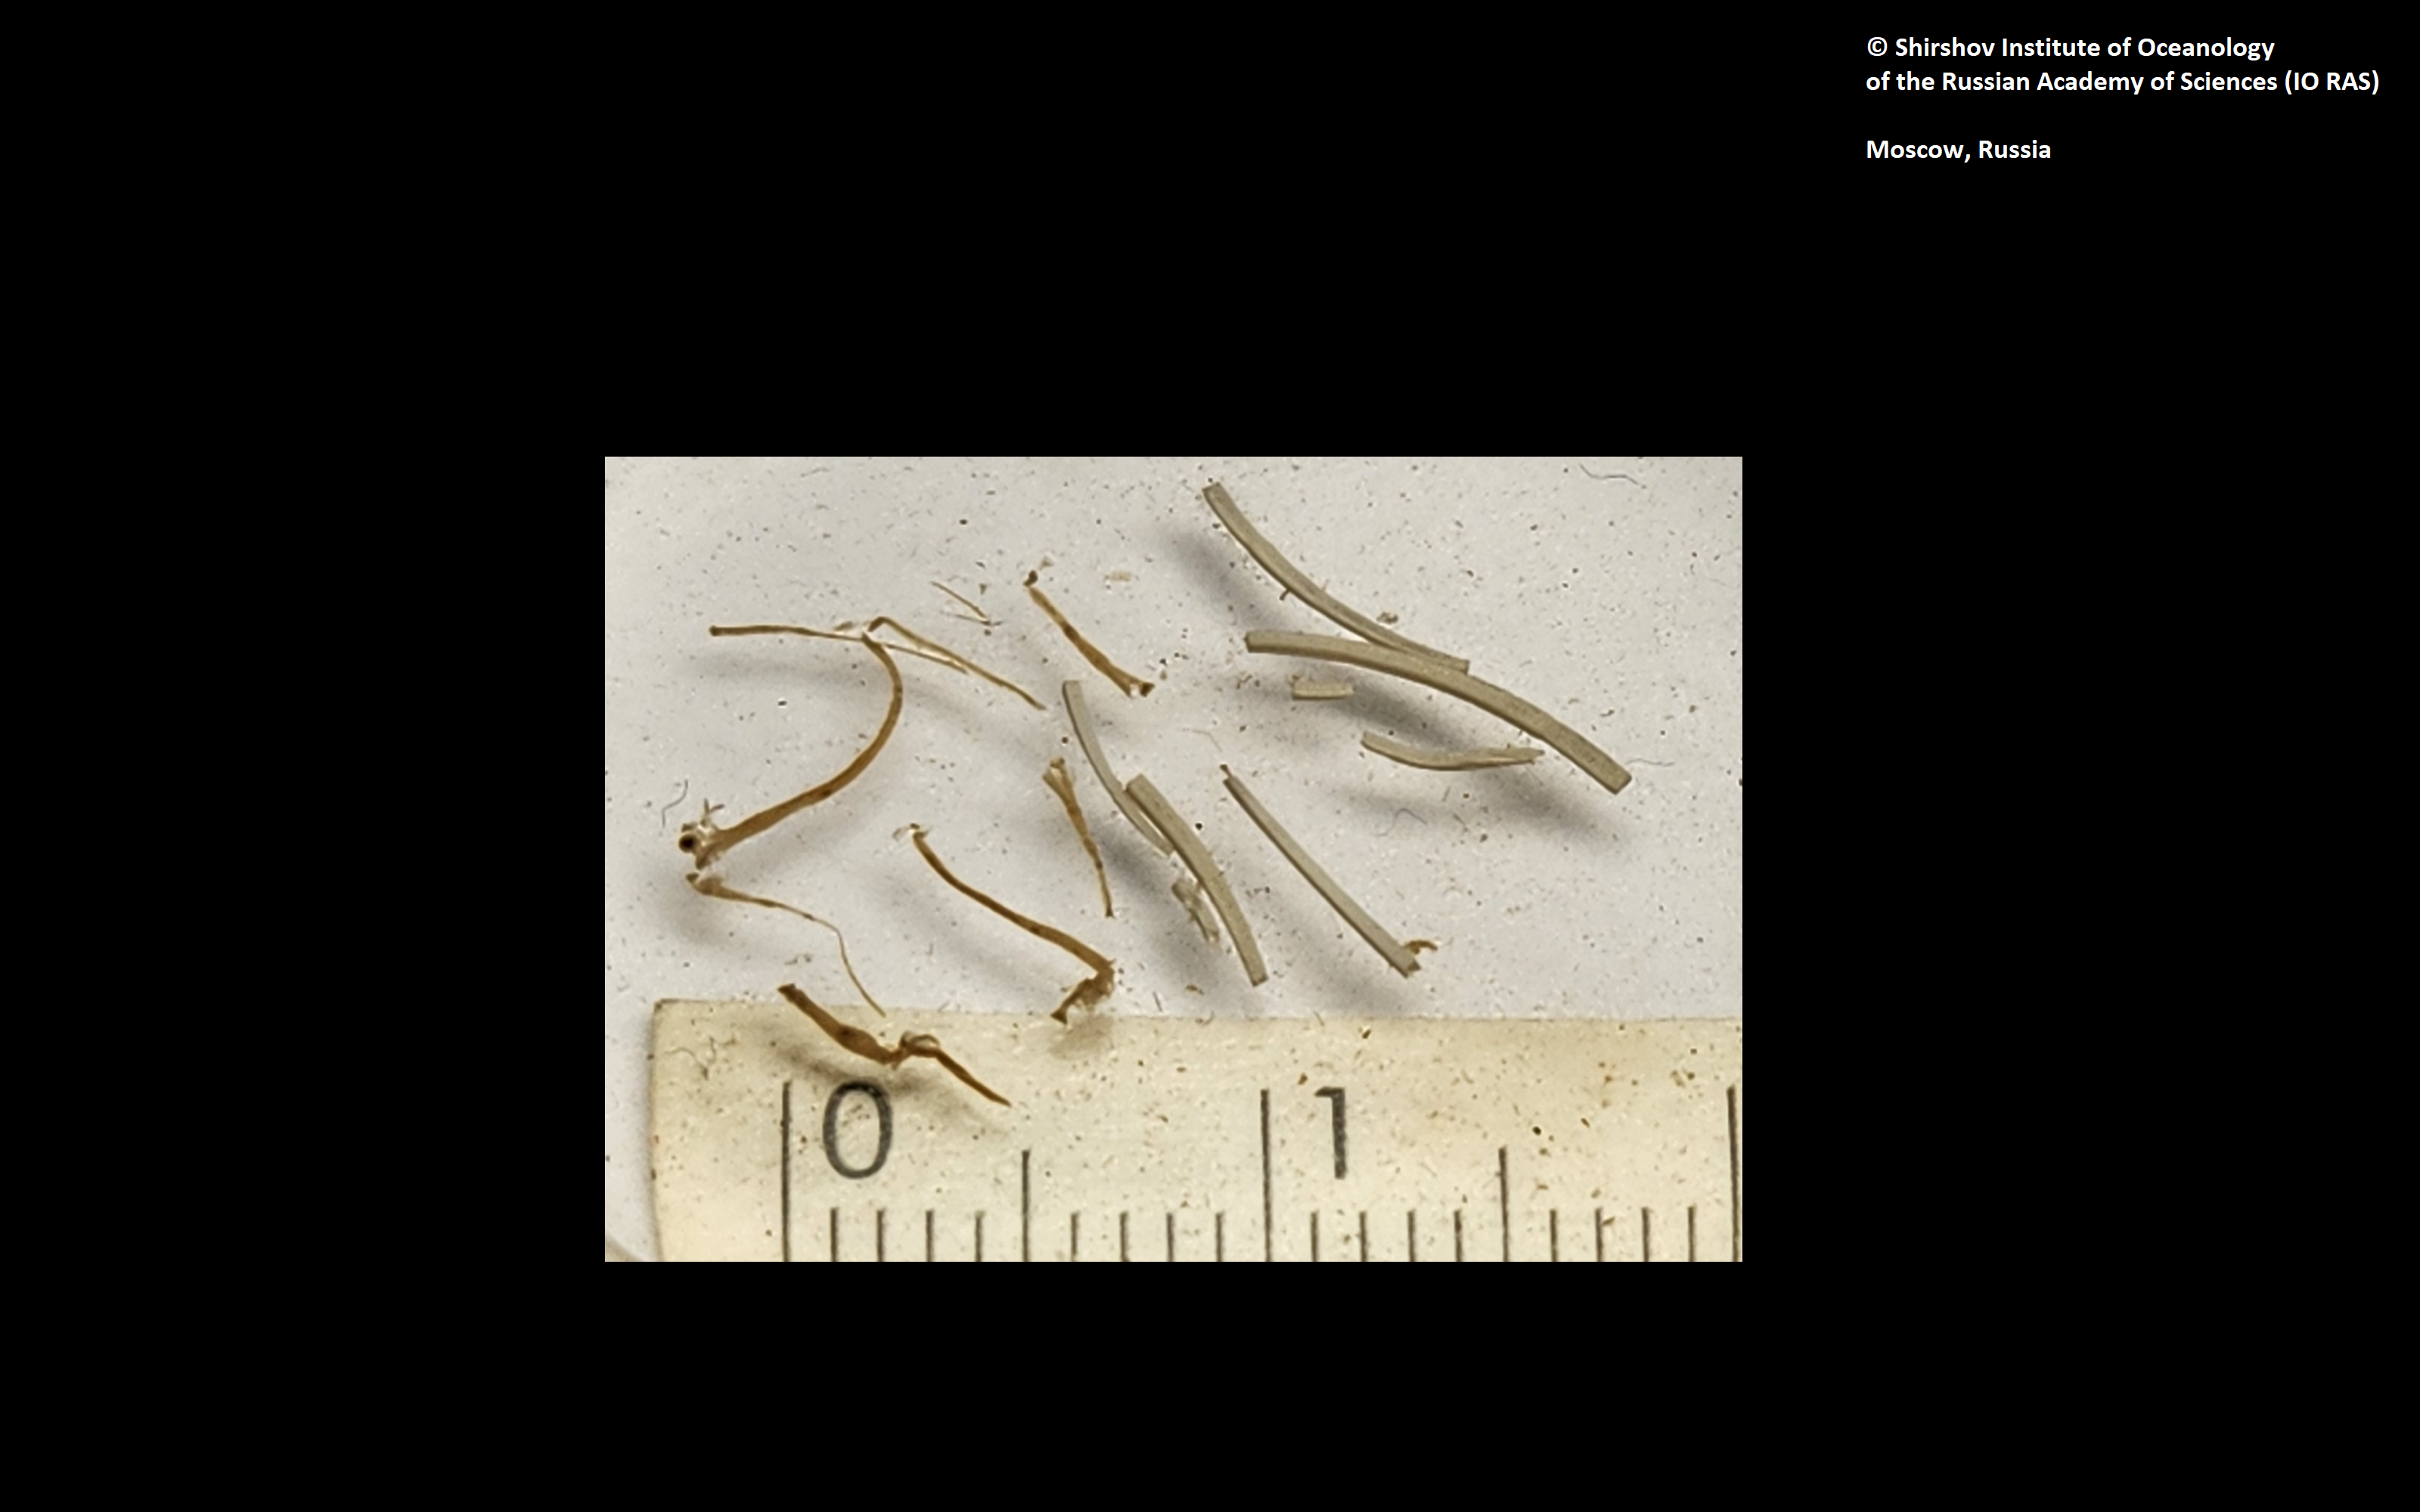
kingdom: Animalia
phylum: Annelida
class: Polychaeta
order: Sabellida
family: Serpulidae
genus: Bathyditrupa
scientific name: Bathyditrupa hovei
